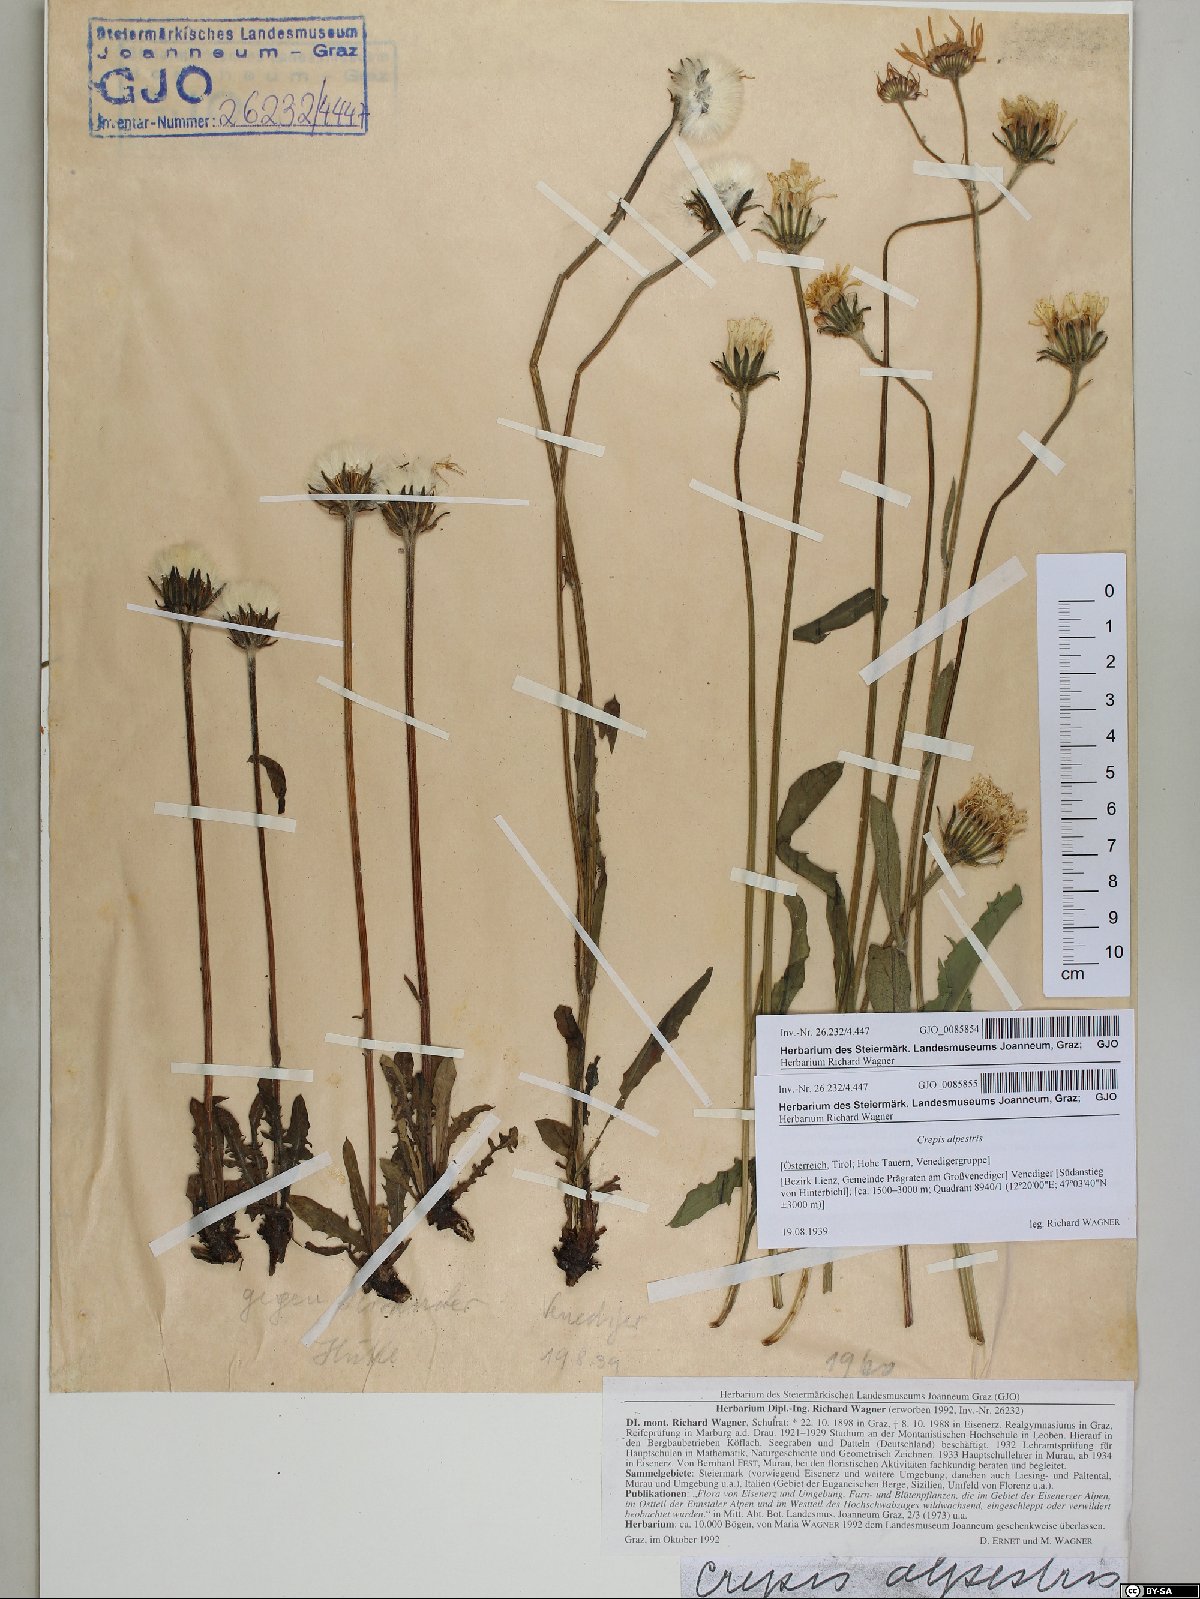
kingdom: Plantae
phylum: Tracheophyta
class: Magnoliopsida
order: Asterales
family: Asteraceae
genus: Crepis
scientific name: Crepis alpestris
